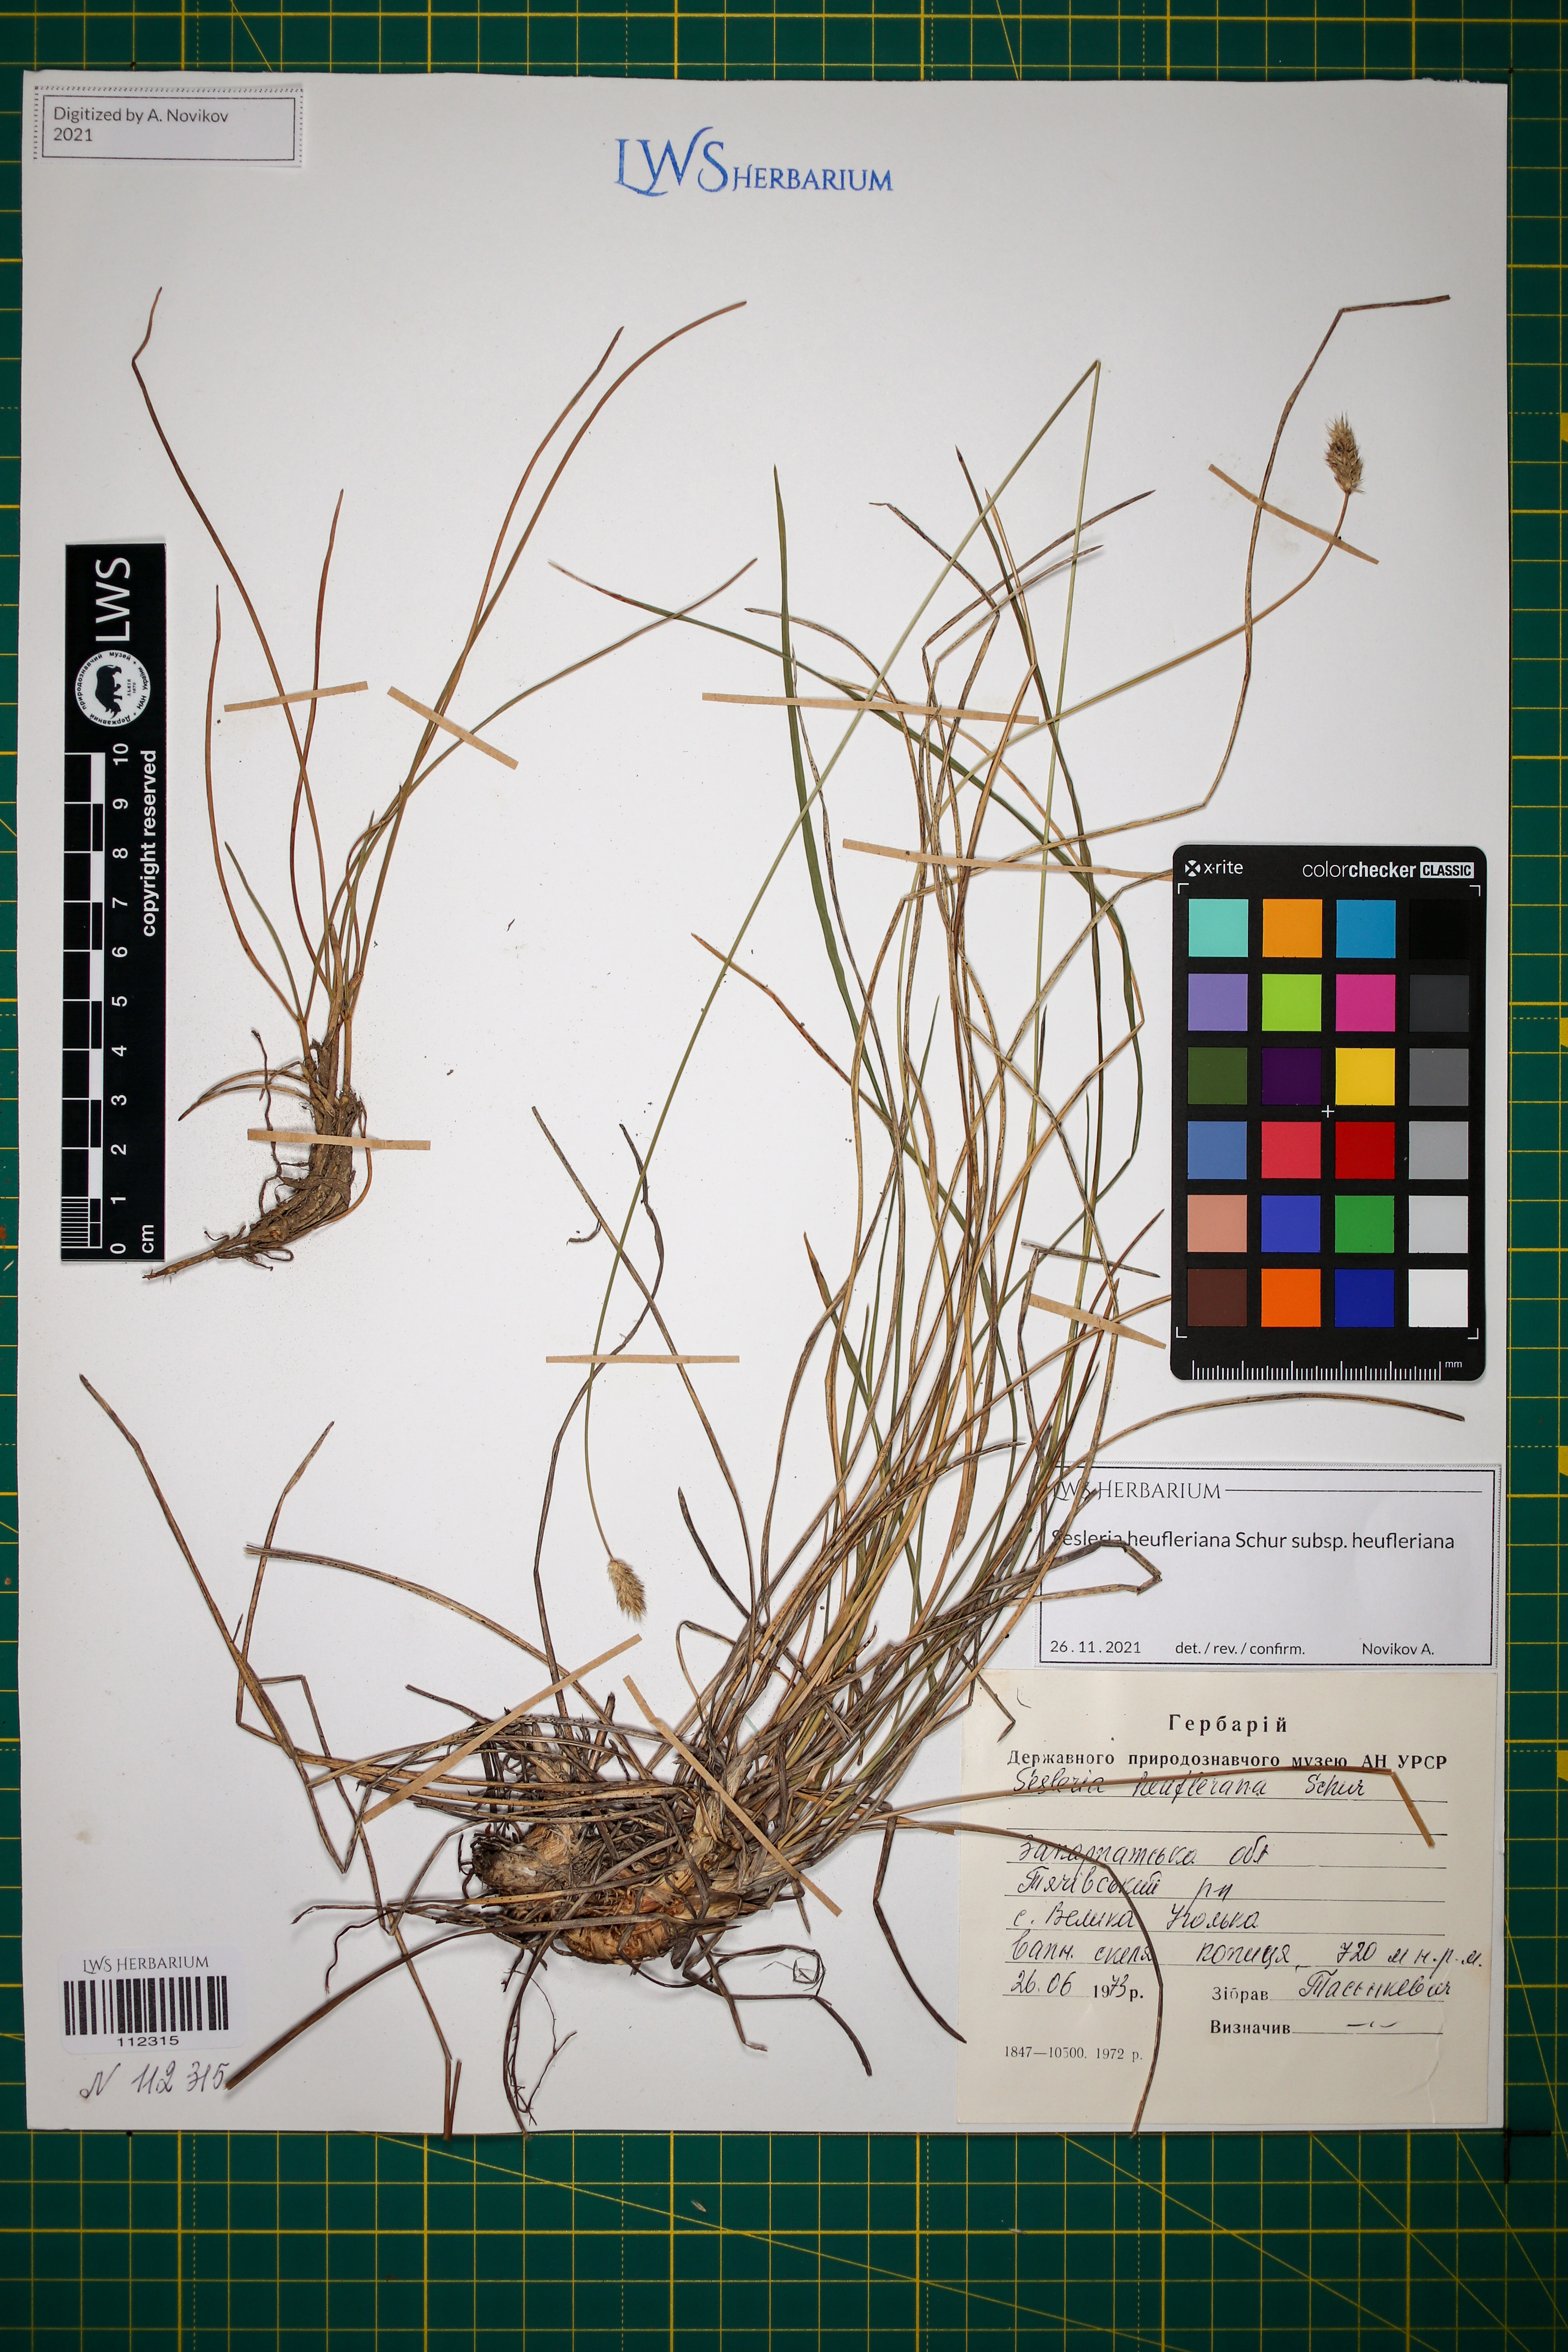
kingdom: Plantae
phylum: Tracheophyta
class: Liliopsida
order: Poales
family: Poaceae
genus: Sesleria
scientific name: Sesleria heufleriana
